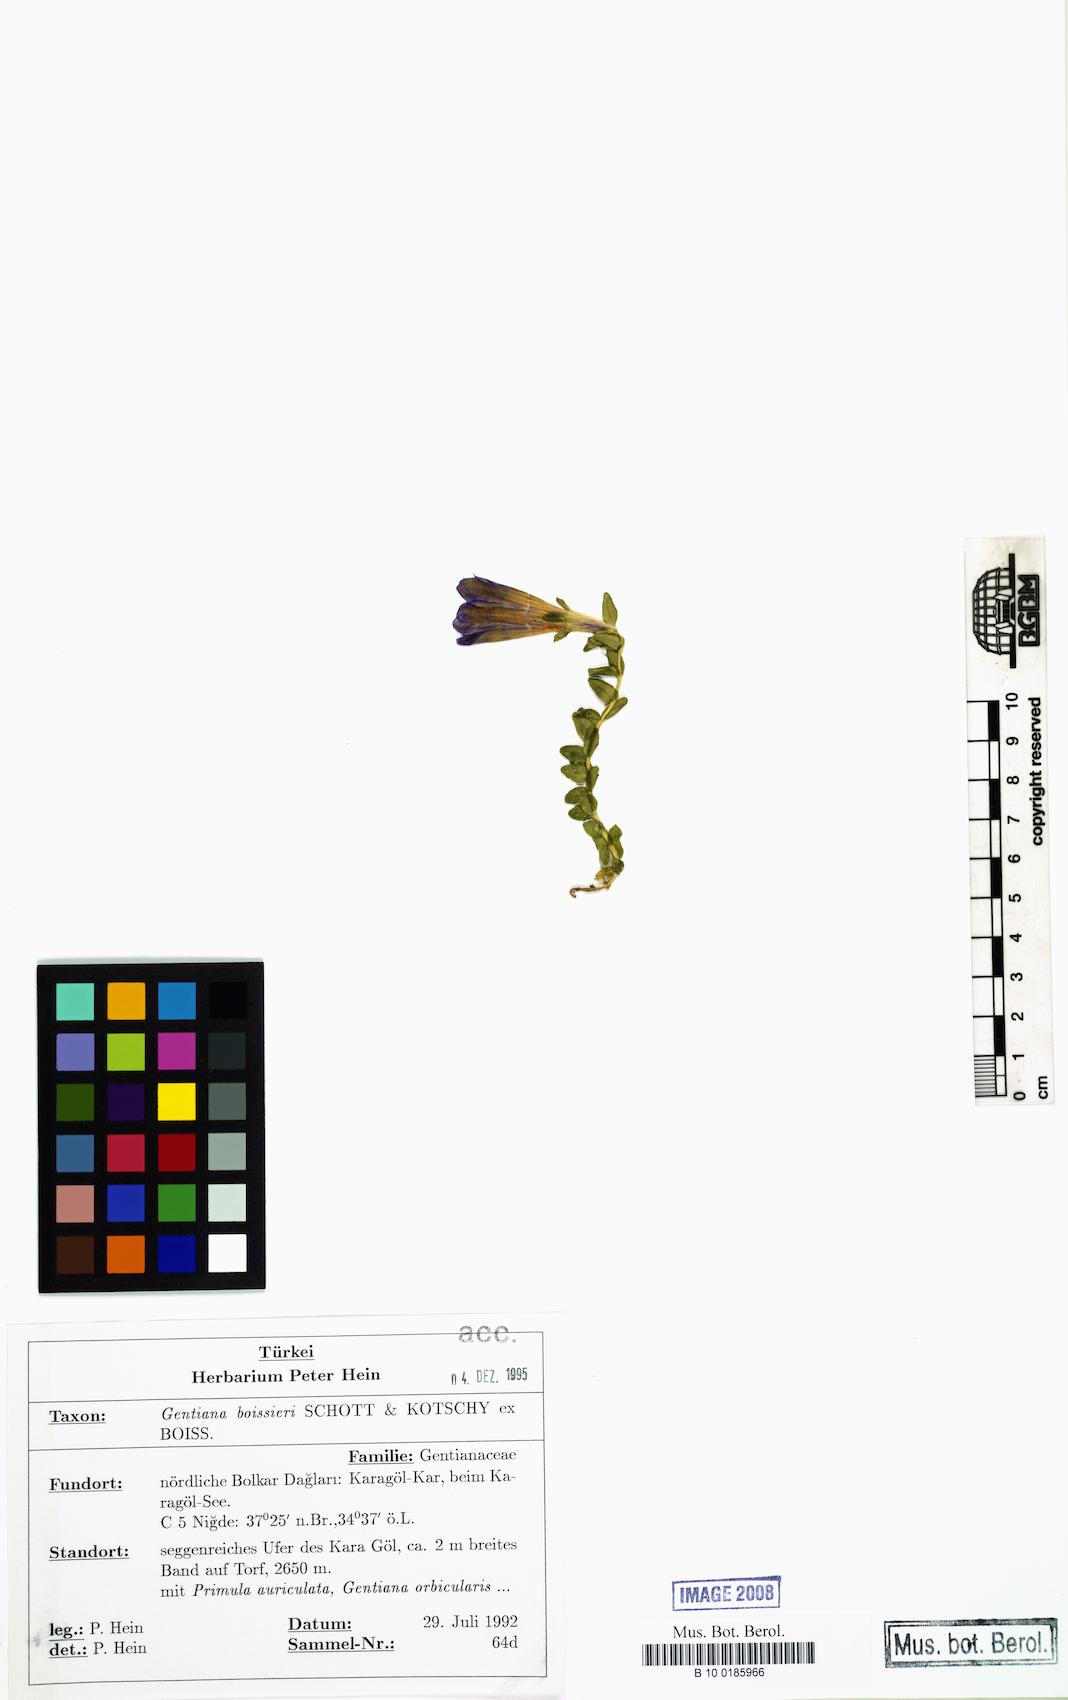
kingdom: Plantae
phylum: Tracheophyta
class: Magnoliopsida
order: Gentianales
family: Gentianaceae
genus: Gentiana
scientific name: Gentiana boissieri
